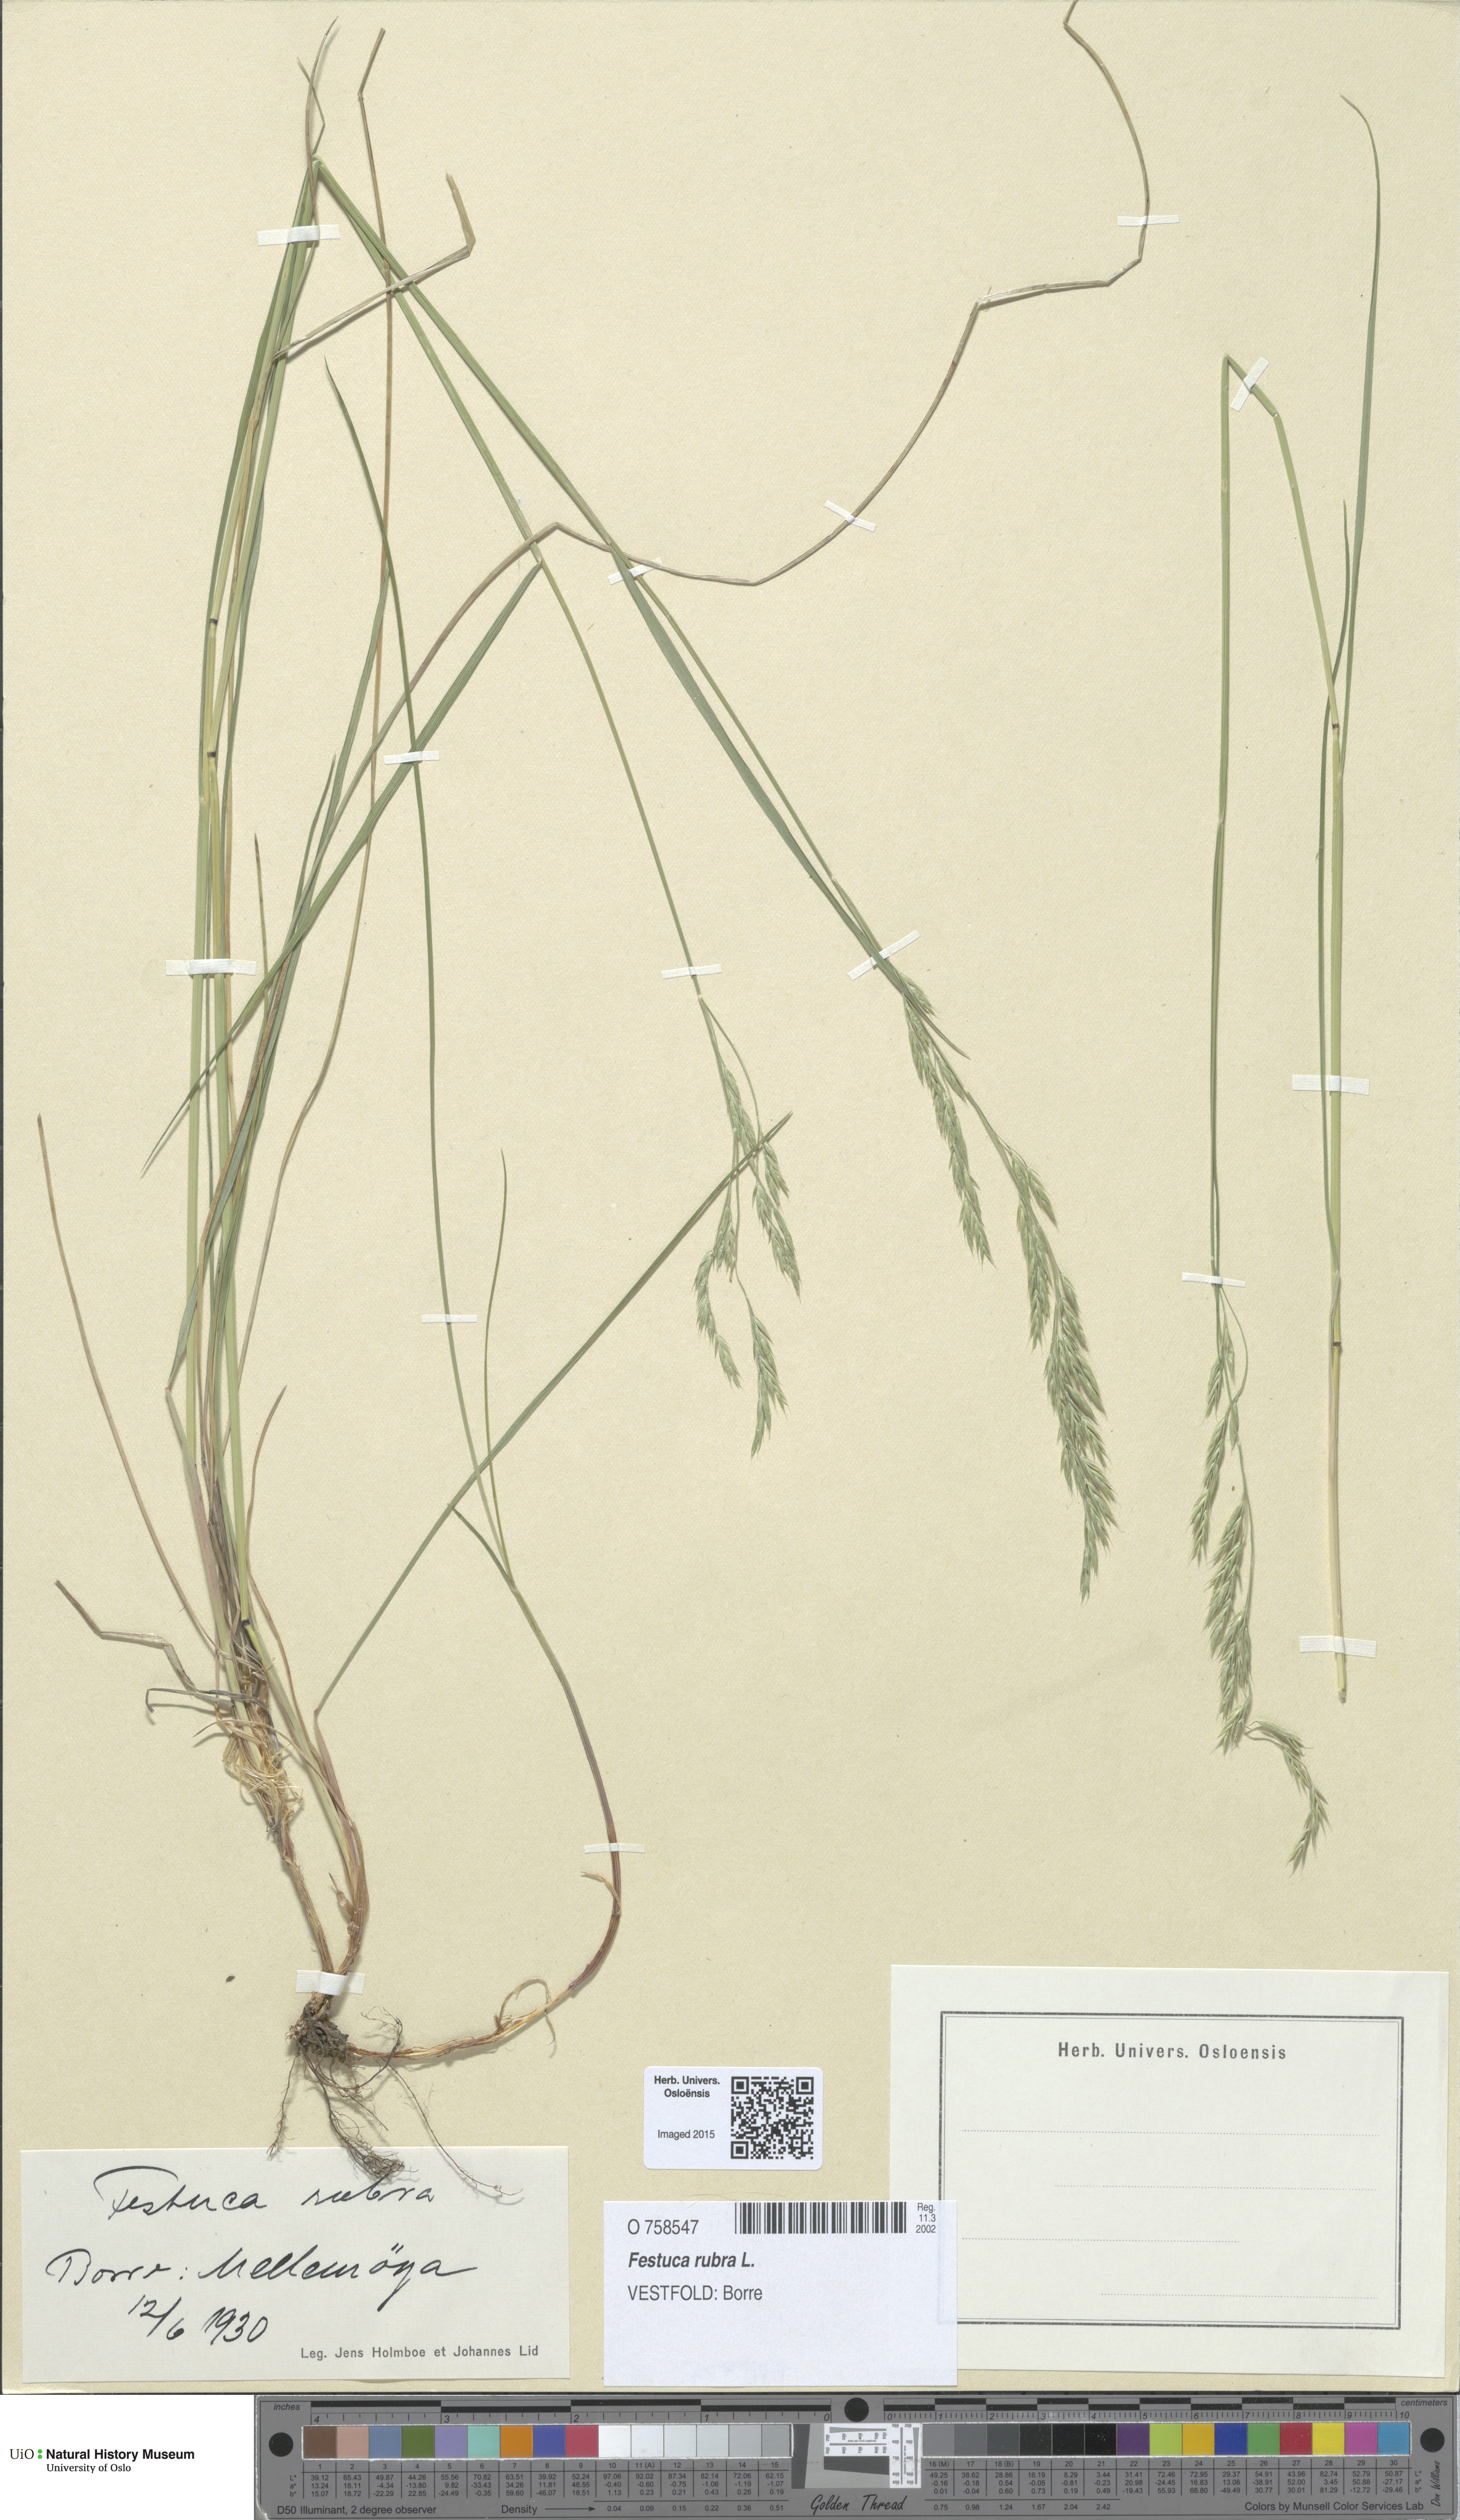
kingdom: Plantae
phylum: Tracheophyta
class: Liliopsida
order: Poales
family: Poaceae
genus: Festuca
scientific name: Festuca rubra
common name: Red fescue
